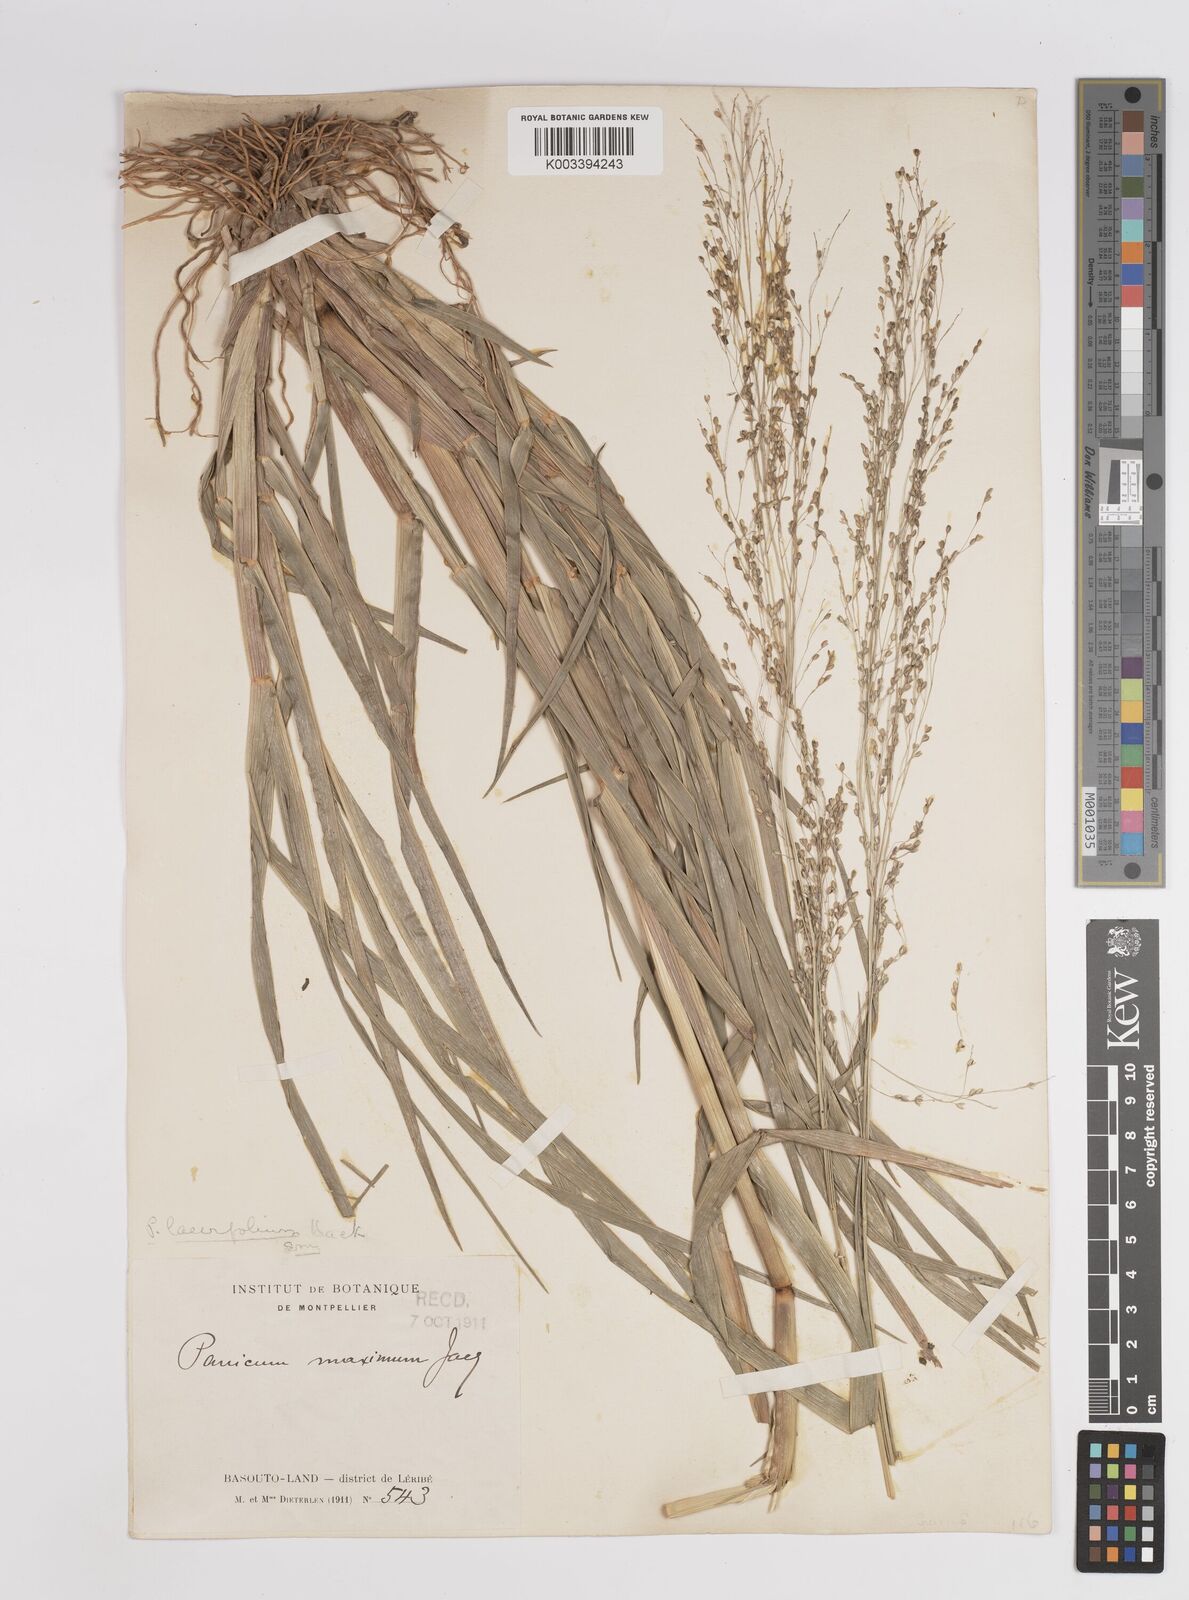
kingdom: Plantae
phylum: Tracheophyta
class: Liliopsida
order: Poales
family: Poaceae
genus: Panicum
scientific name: Panicum schinzii
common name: Sweet grass
